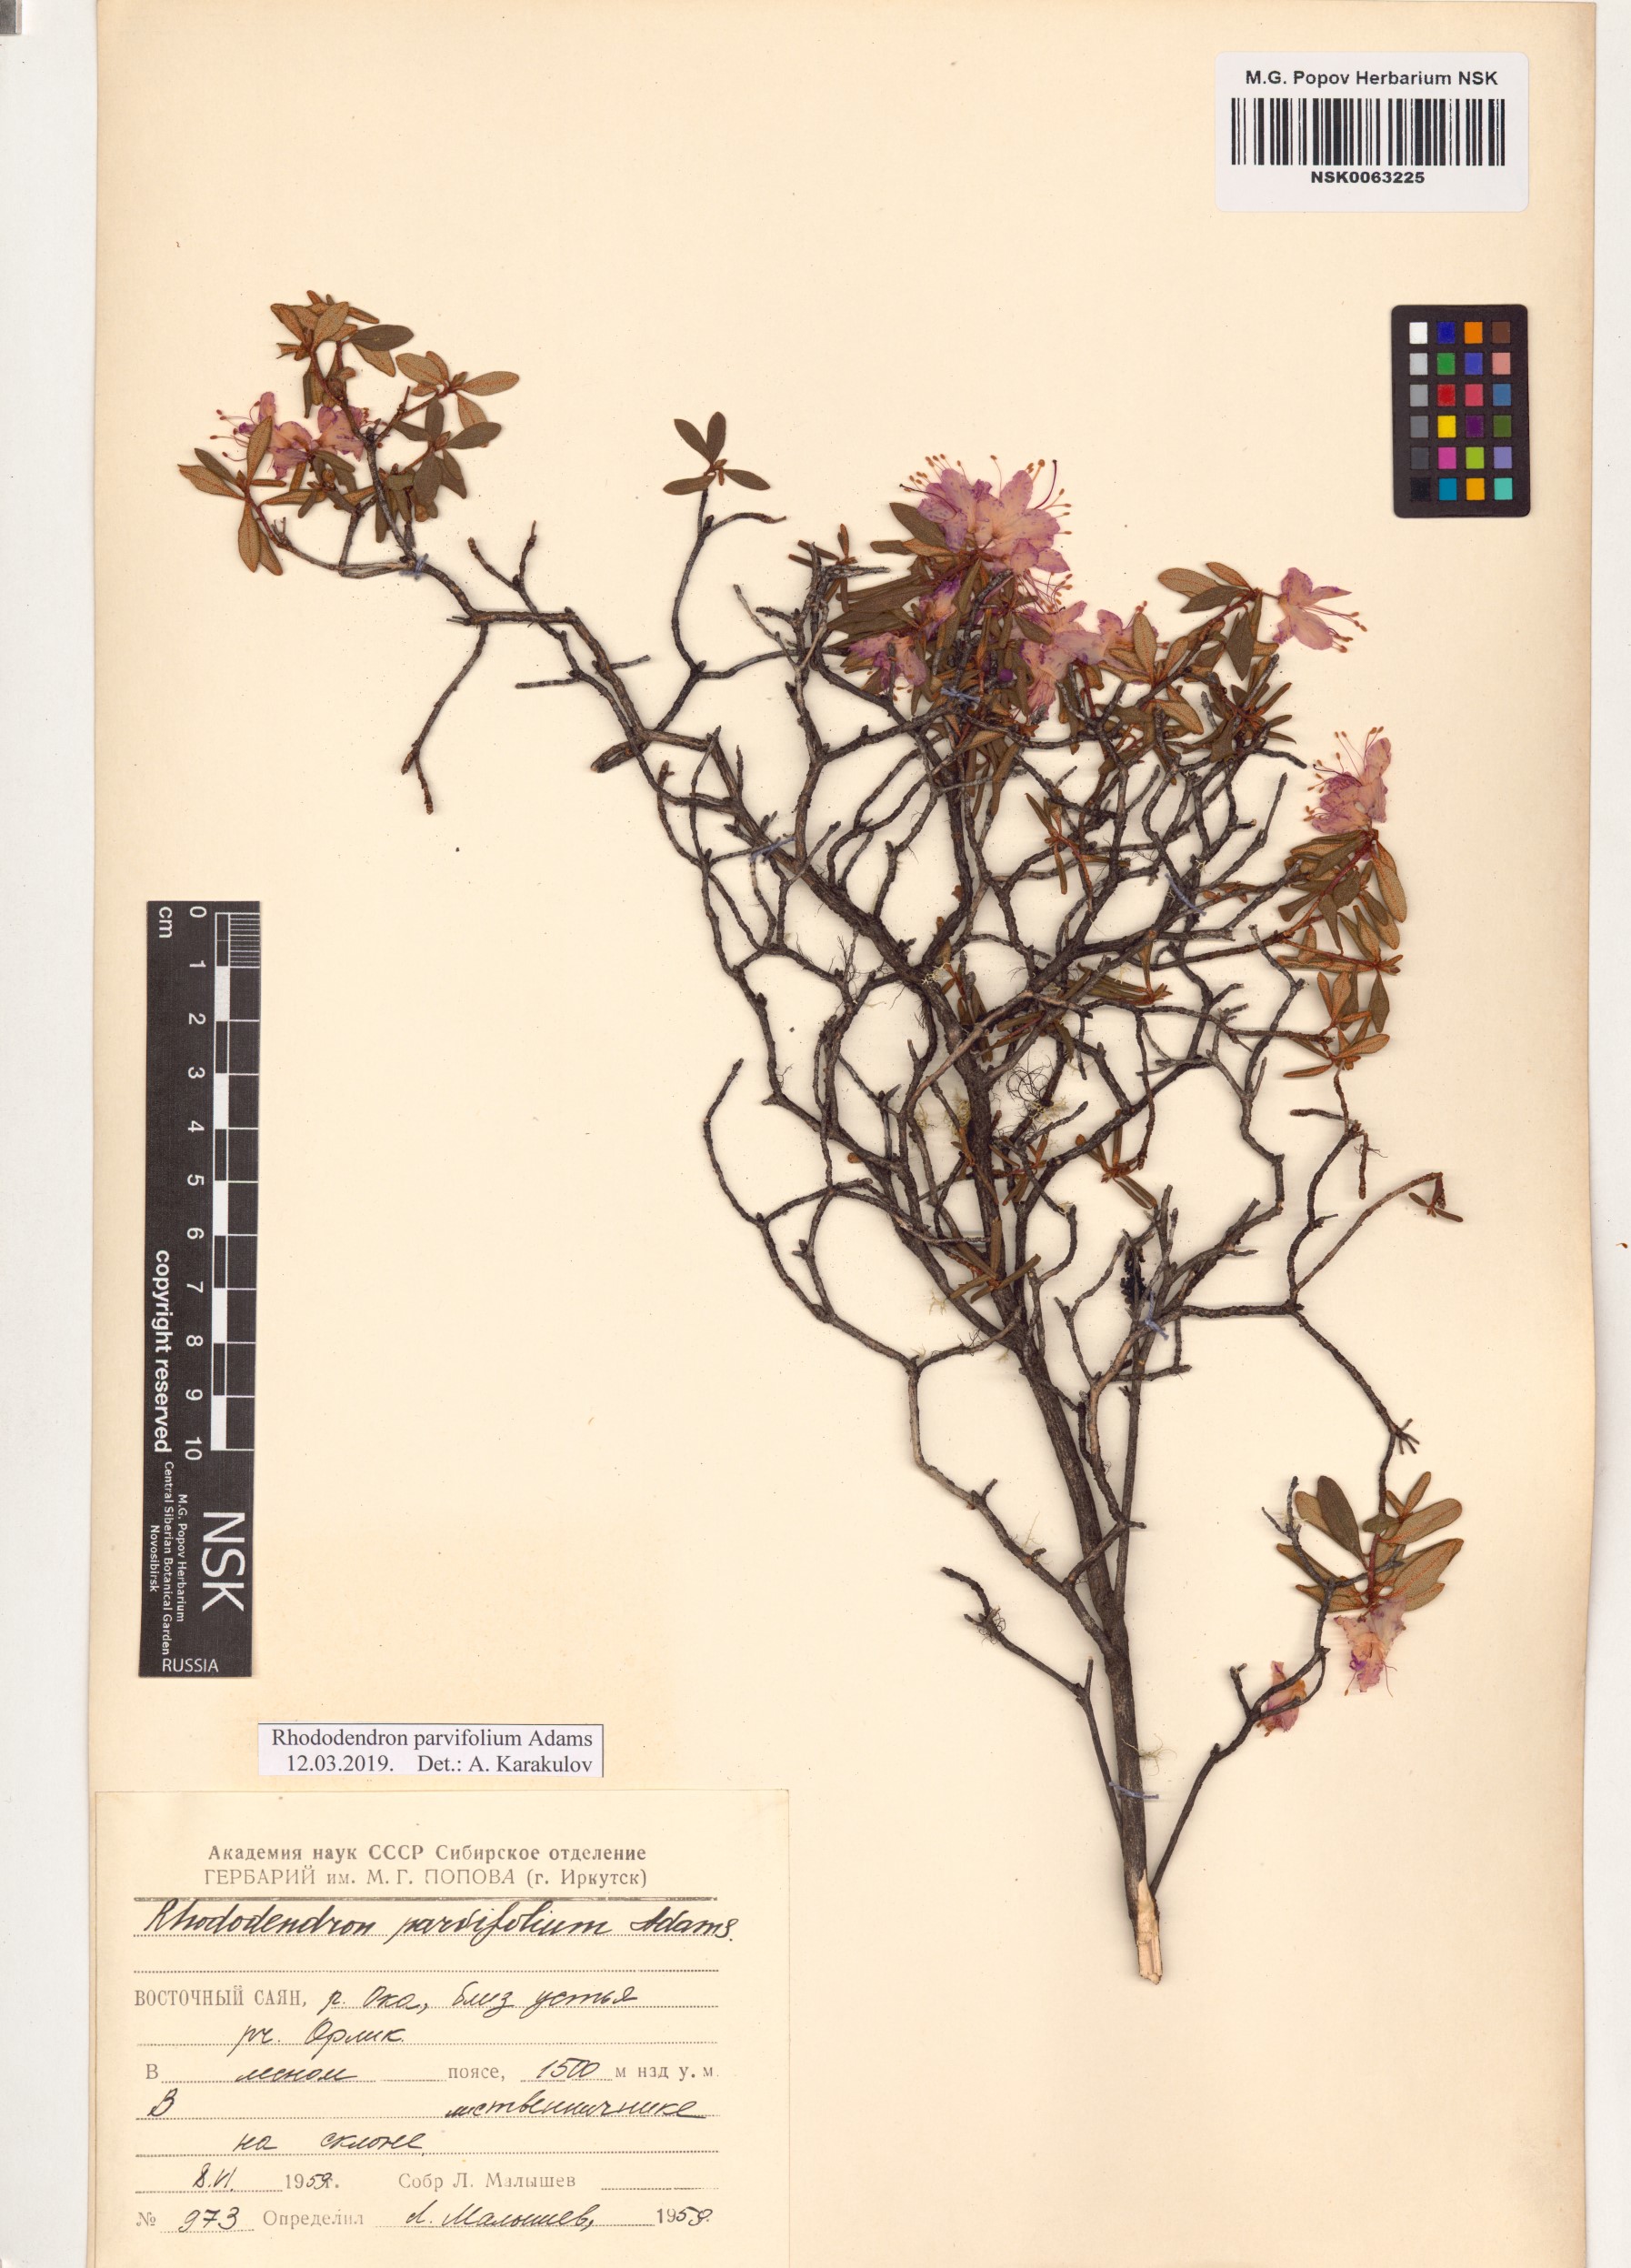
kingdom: Plantae
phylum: Tracheophyta
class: Magnoliopsida
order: Ericales
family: Ericaceae
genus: Rhododendron
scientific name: Rhododendron parvifolium
